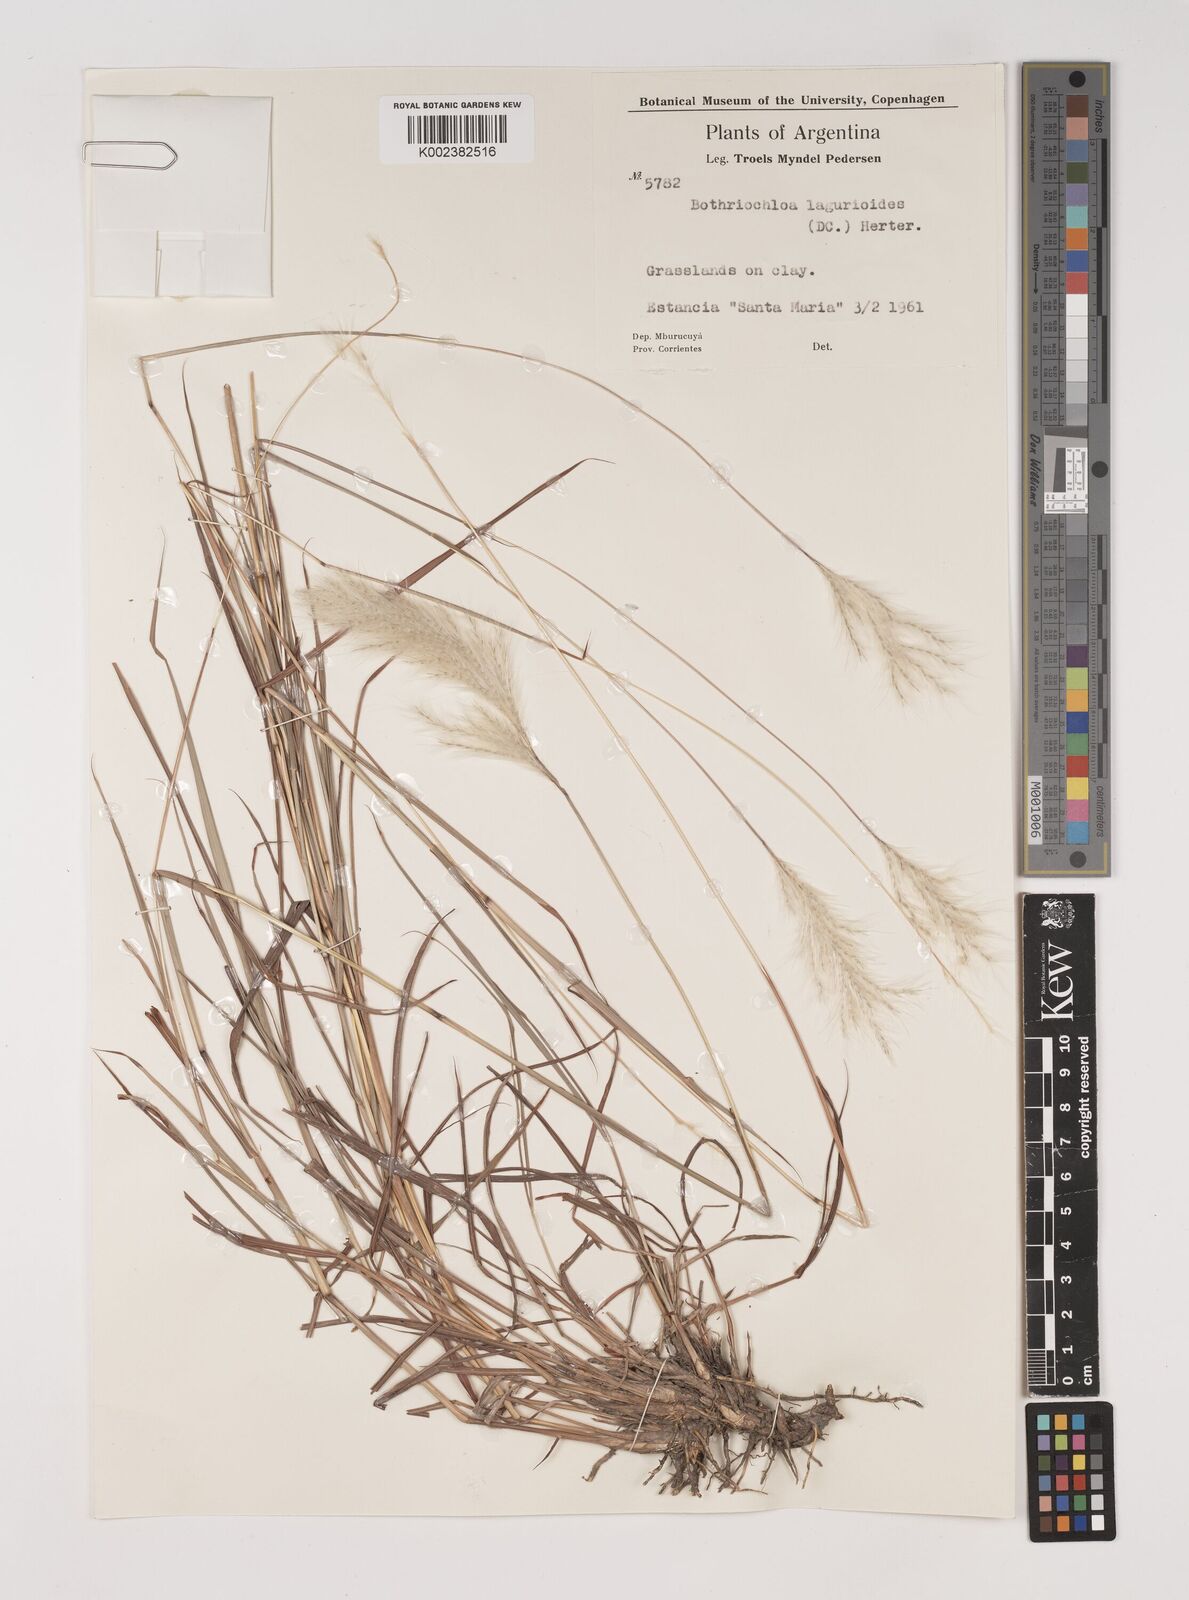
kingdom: Plantae
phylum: Tracheophyta
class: Liliopsida
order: Poales
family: Poaceae
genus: Bothriochloa
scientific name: Bothriochloa laguroides
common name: Silver bluestem
